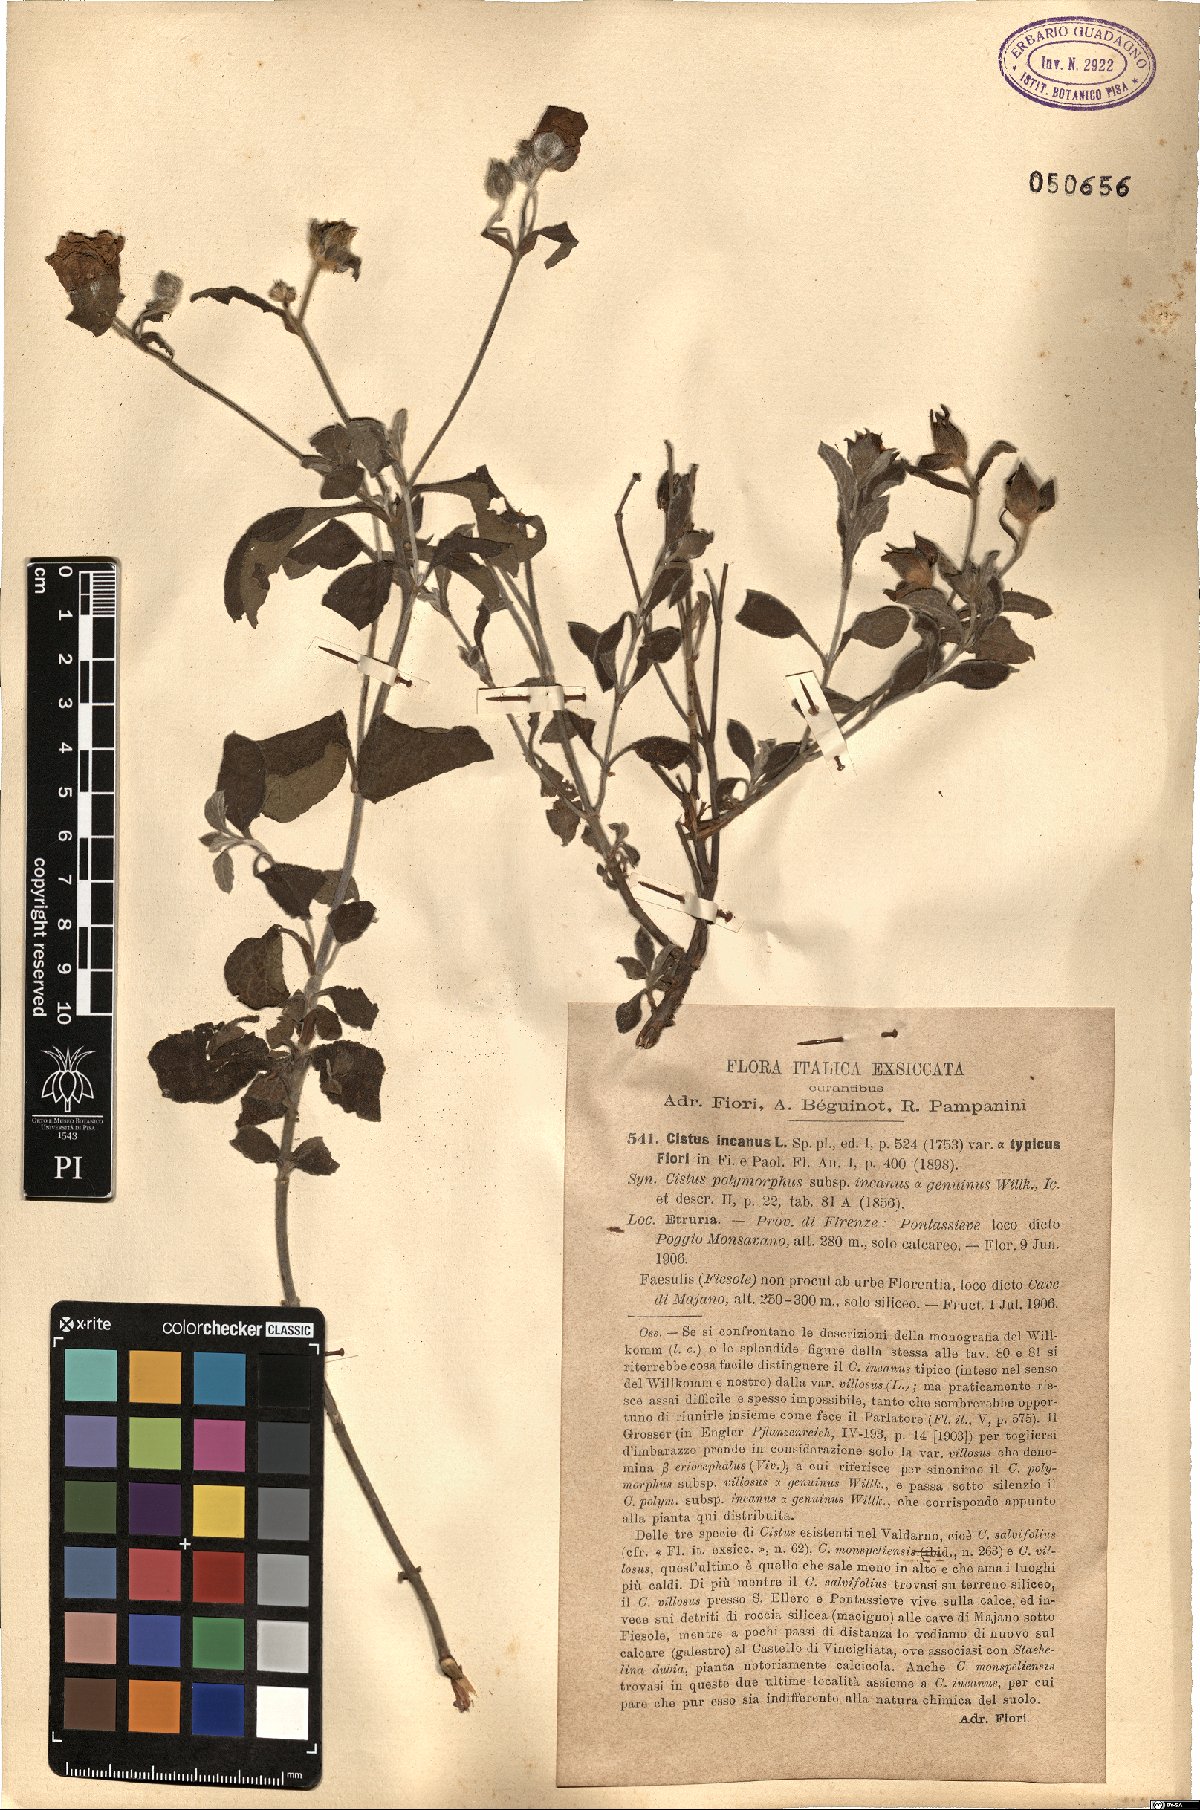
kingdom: Plantae
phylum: Tracheophyta
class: Magnoliopsida
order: Malvales
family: Cistaceae
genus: Cistus
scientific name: Cistus incanus
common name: Hairy rockrose
